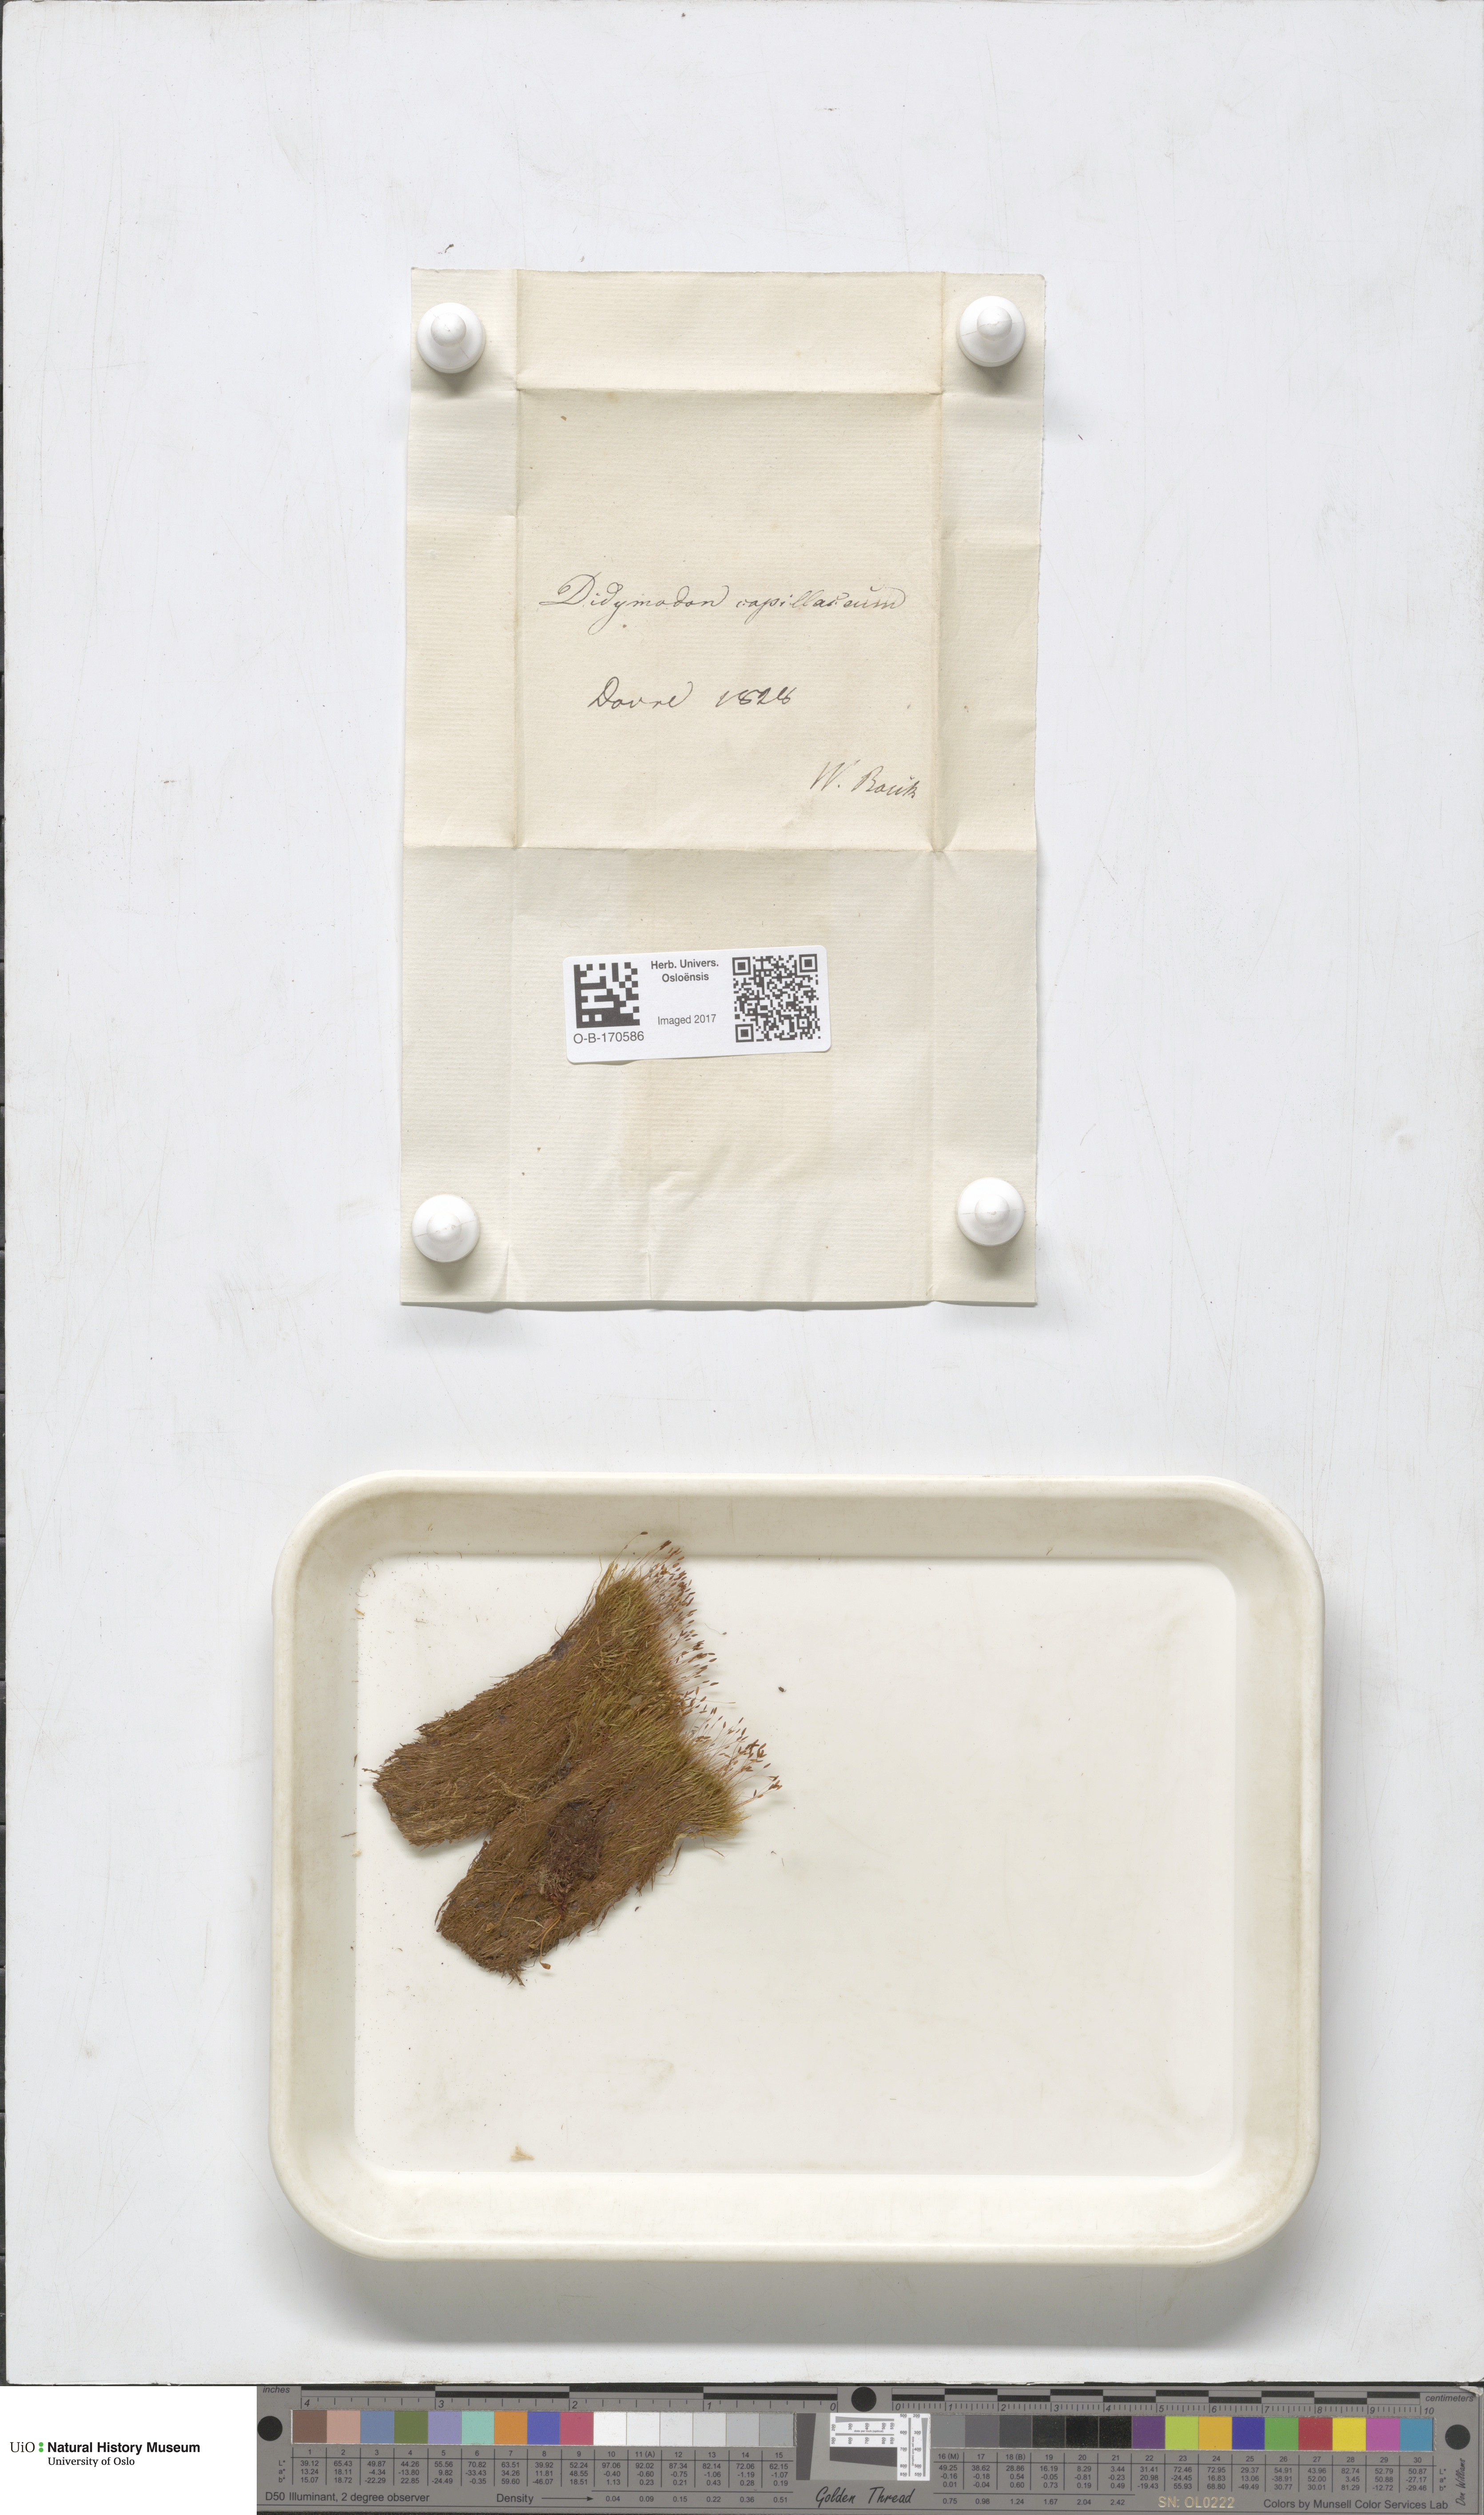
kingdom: Plantae
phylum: Bryophyta
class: Bryopsida
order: Scouleriales
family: Distichiaceae
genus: Distichium
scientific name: Distichium capillaceum
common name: Erect-fruited iris moss
